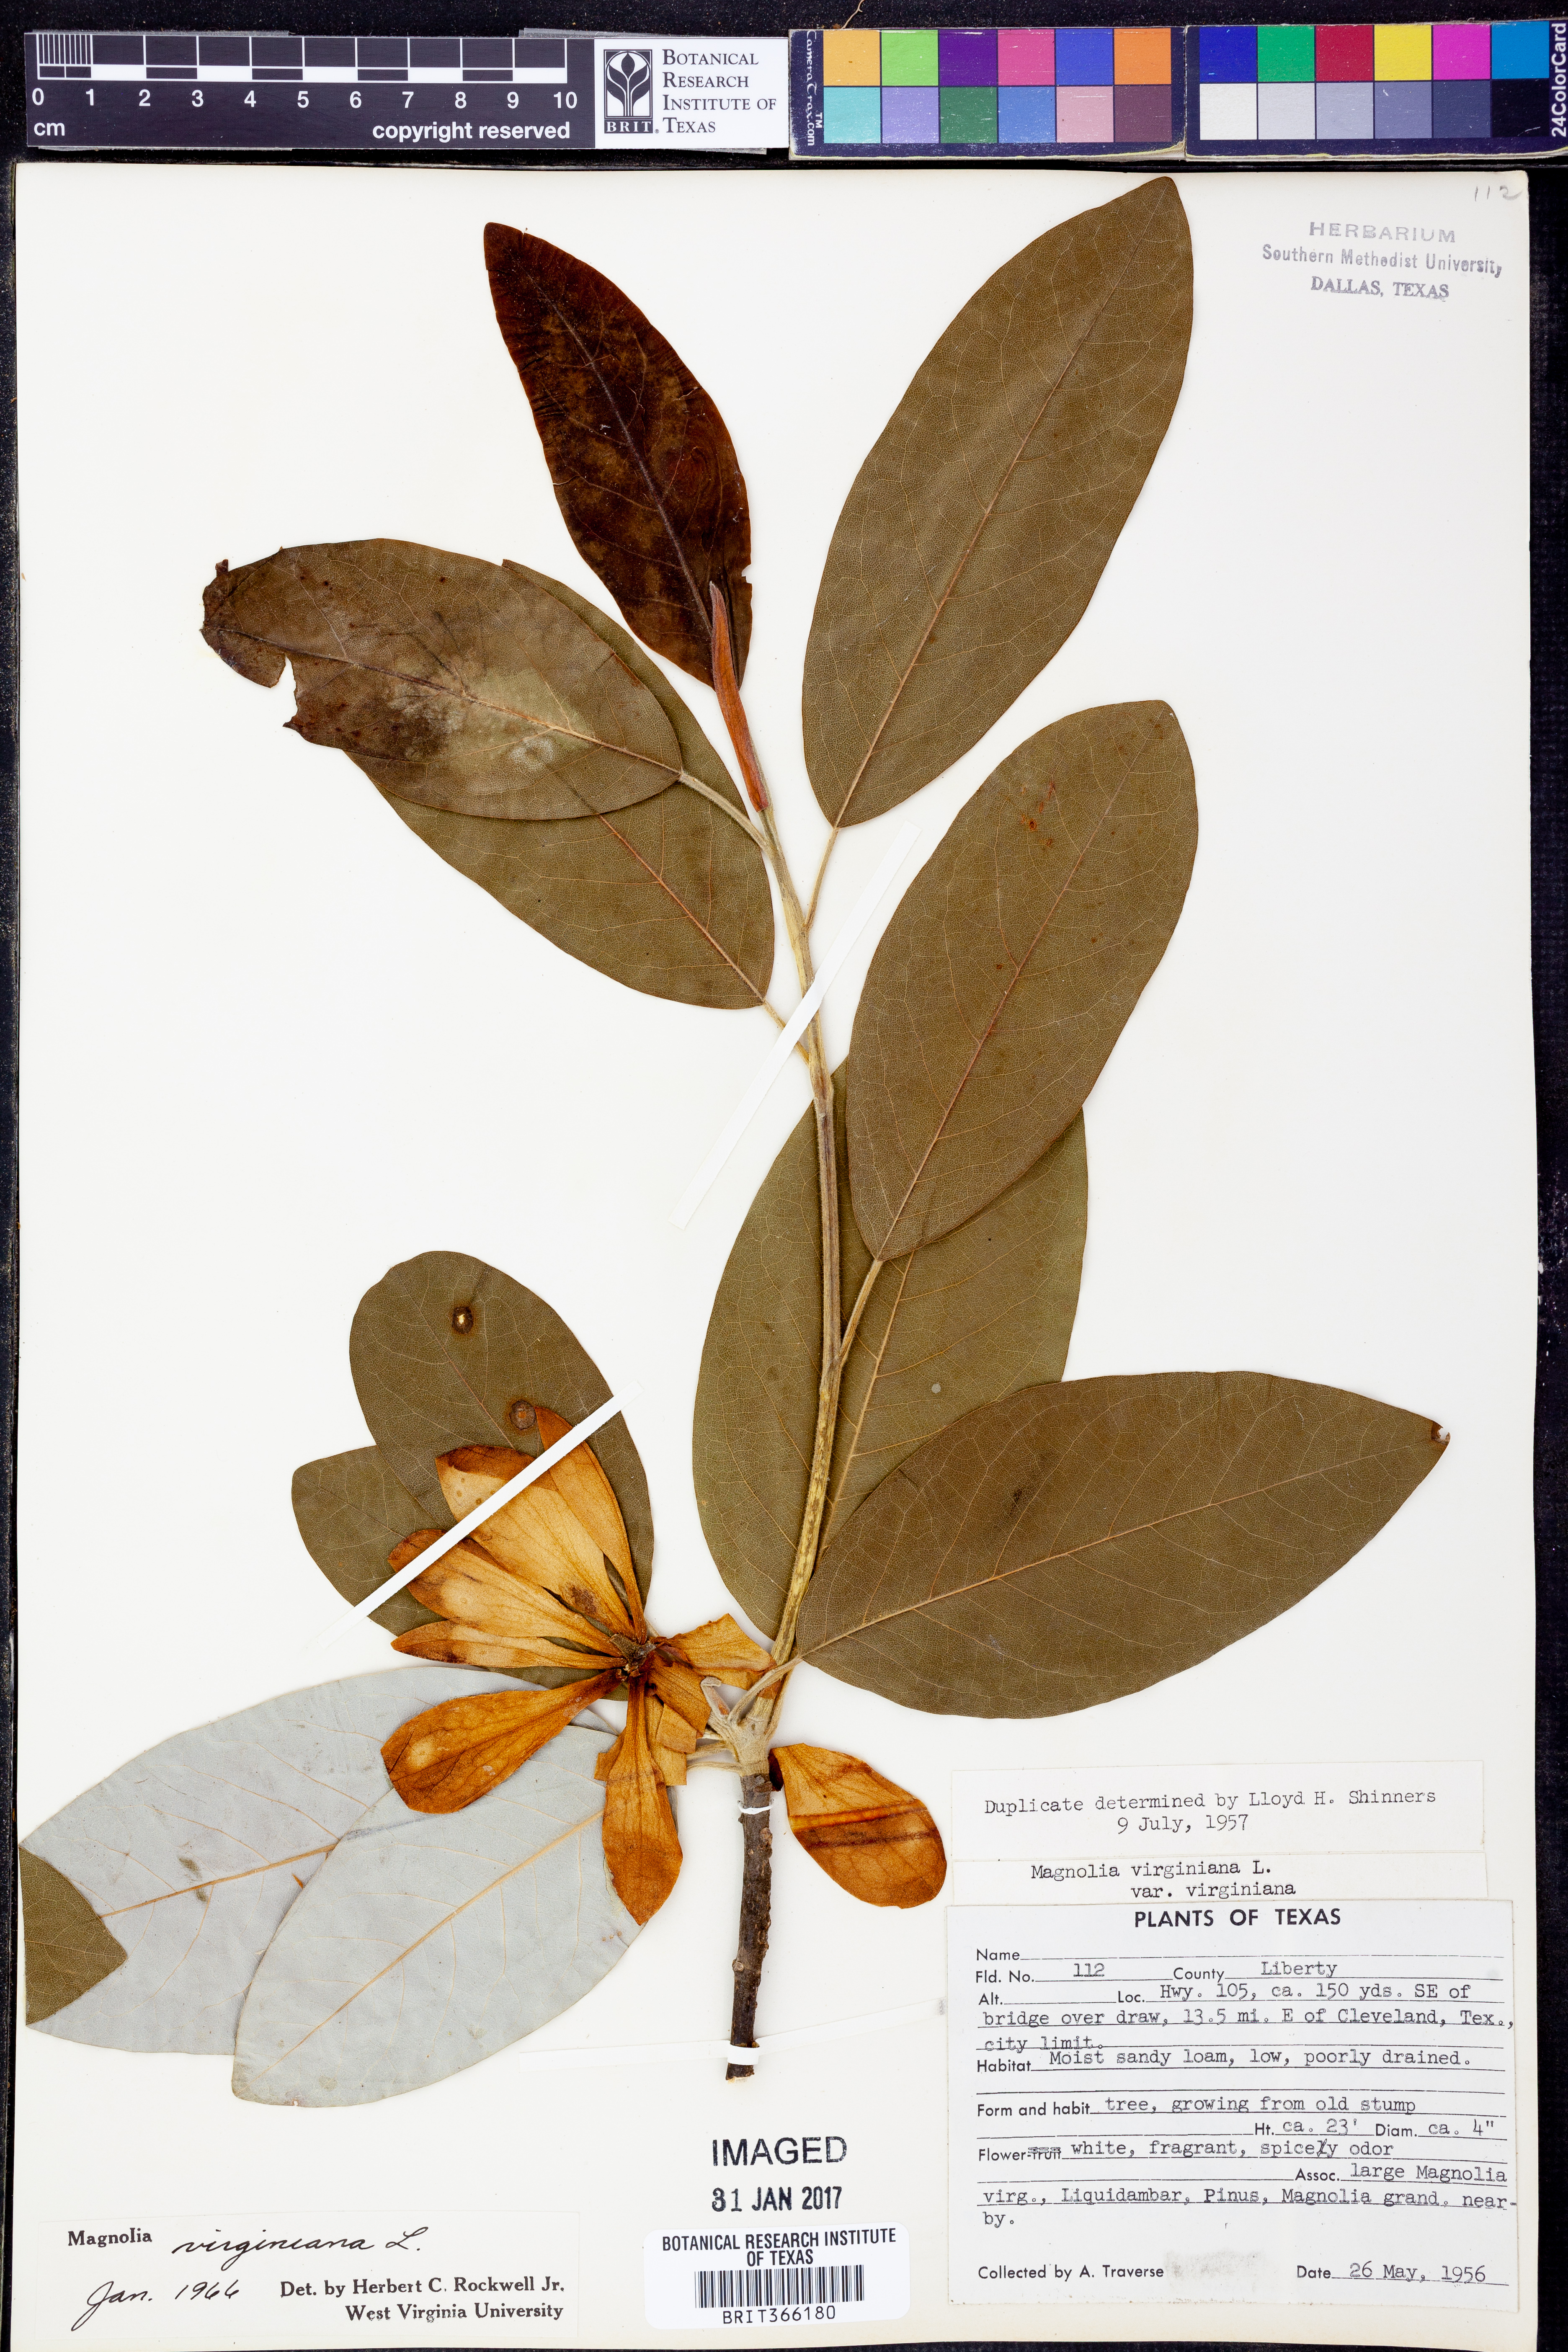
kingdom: Plantae
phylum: Tracheophyta
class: Magnoliopsida
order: Magnoliales
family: Magnoliaceae
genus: Magnolia
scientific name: Magnolia virginiana
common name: Swamp bay
